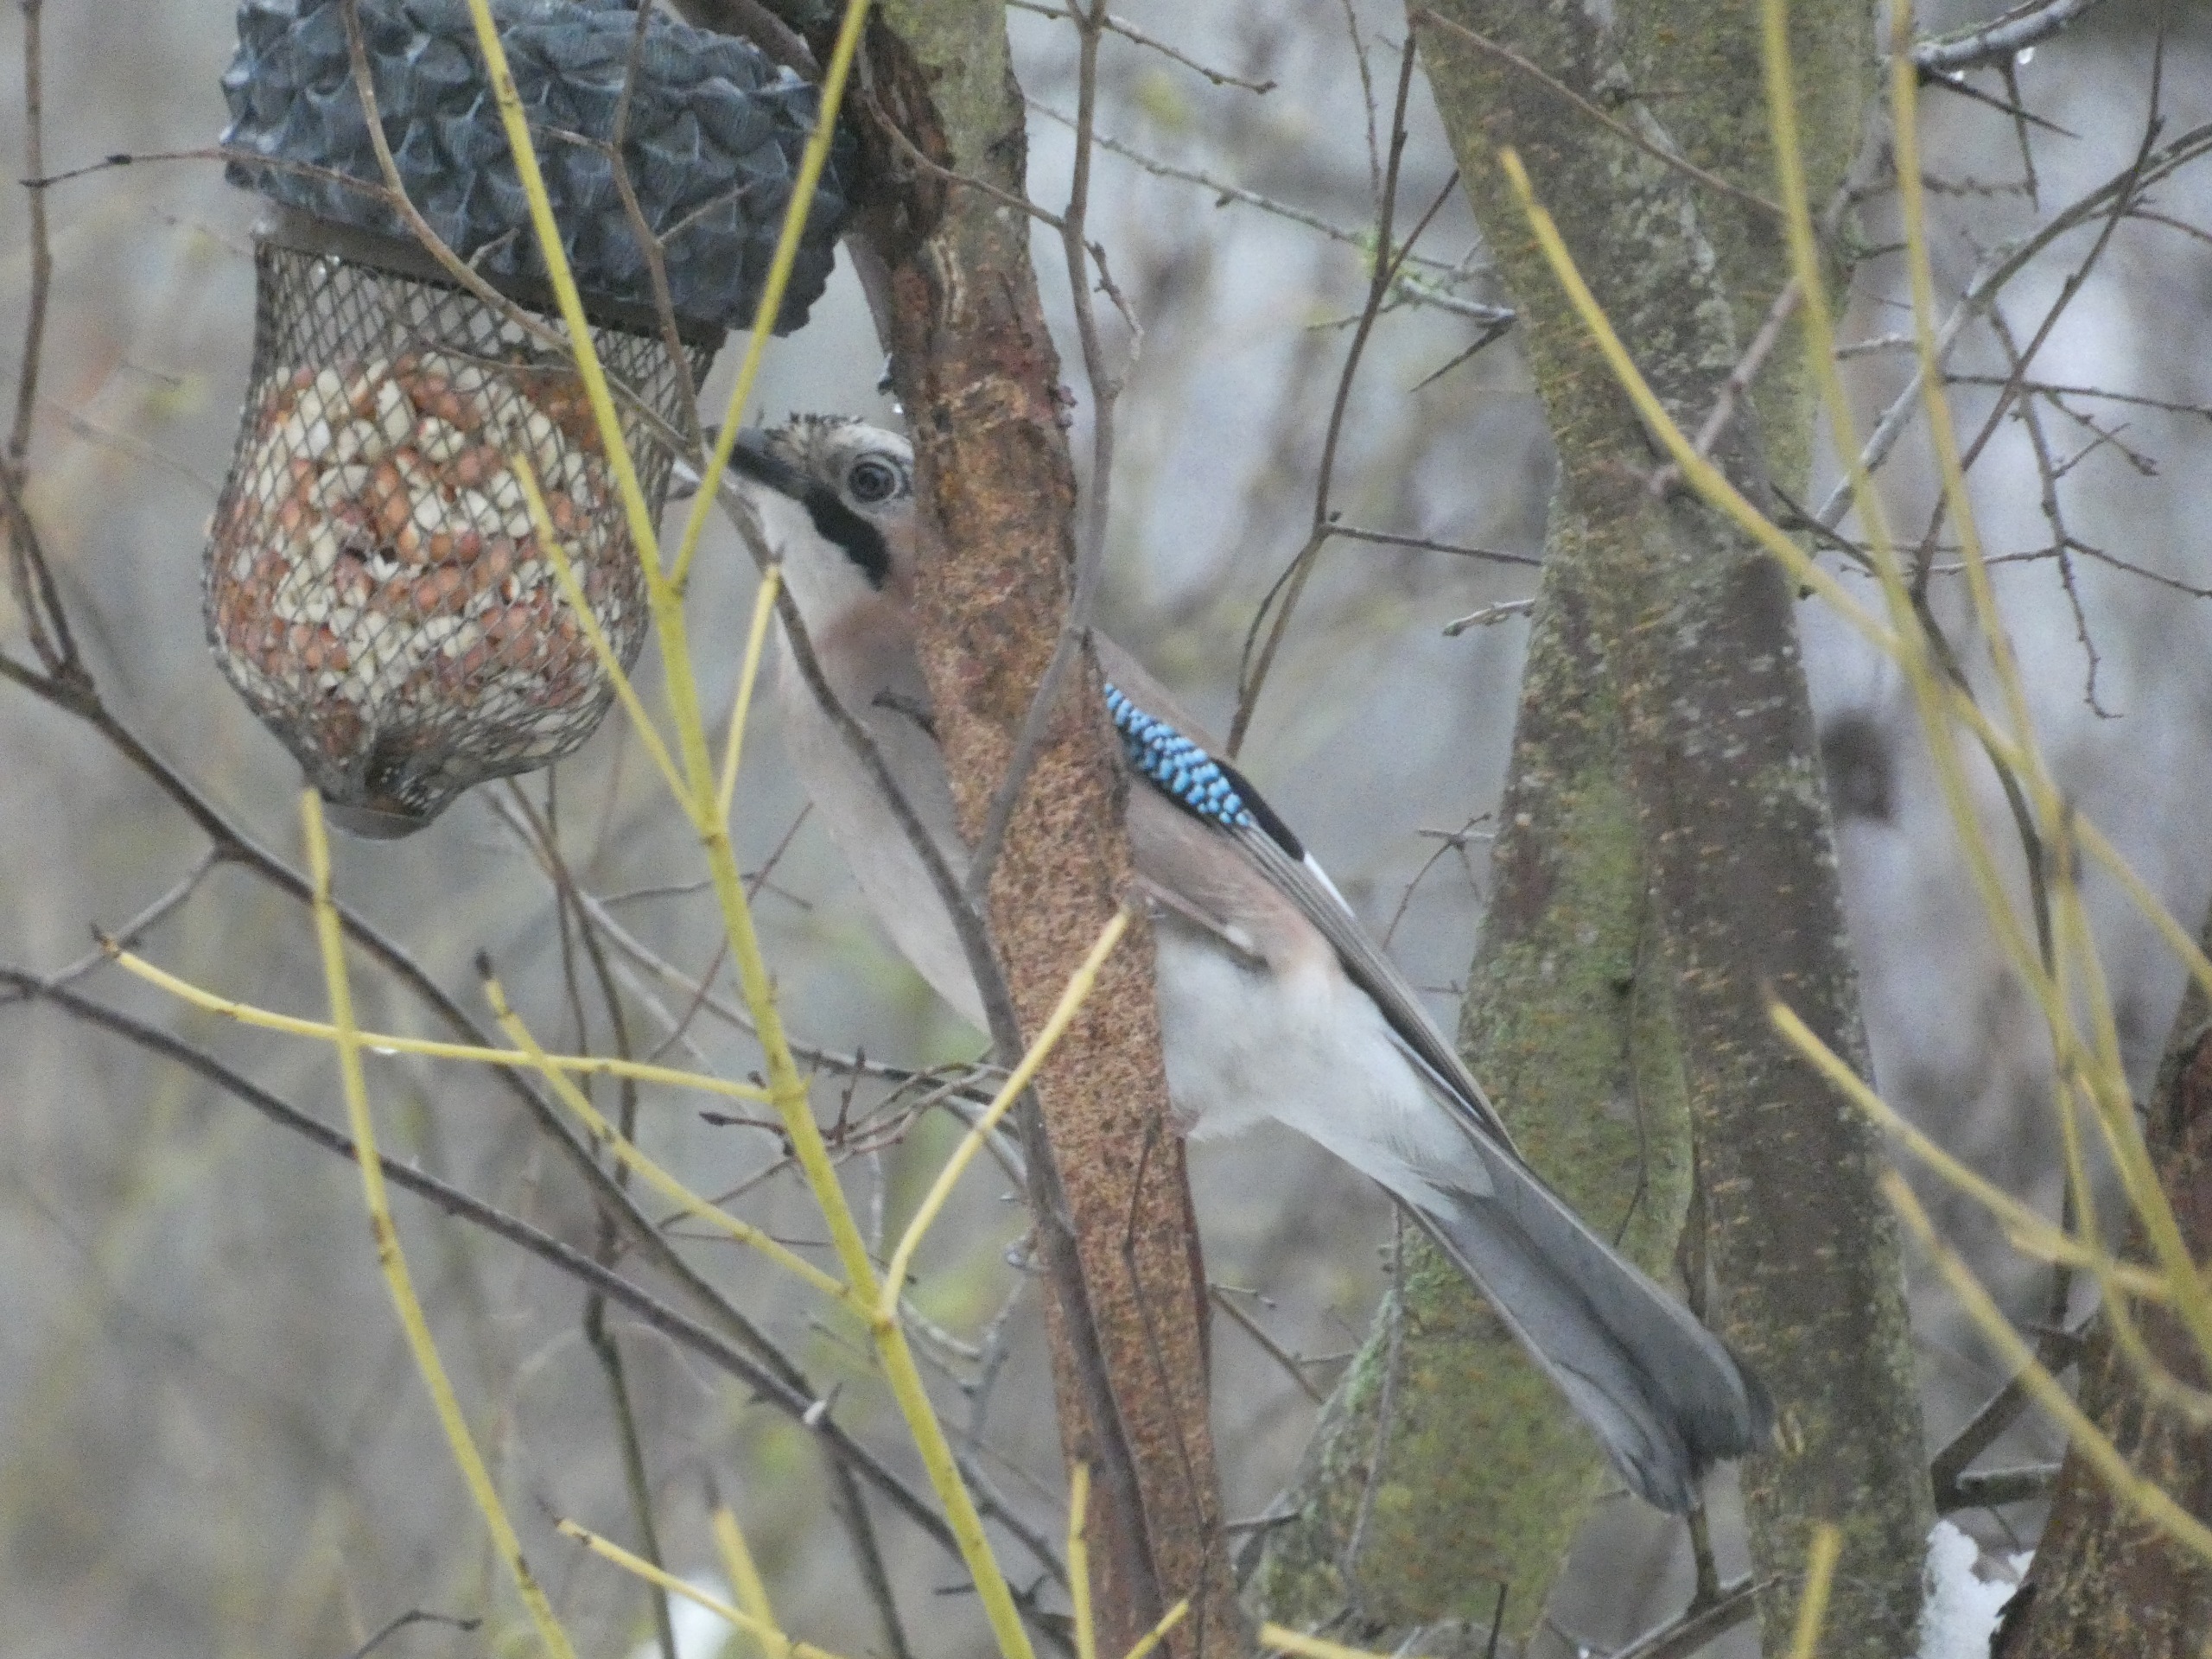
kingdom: Animalia
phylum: Chordata
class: Aves
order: Passeriformes
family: Corvidae
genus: Garrulus
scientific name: Garrulus glandarius
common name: Skovskade
